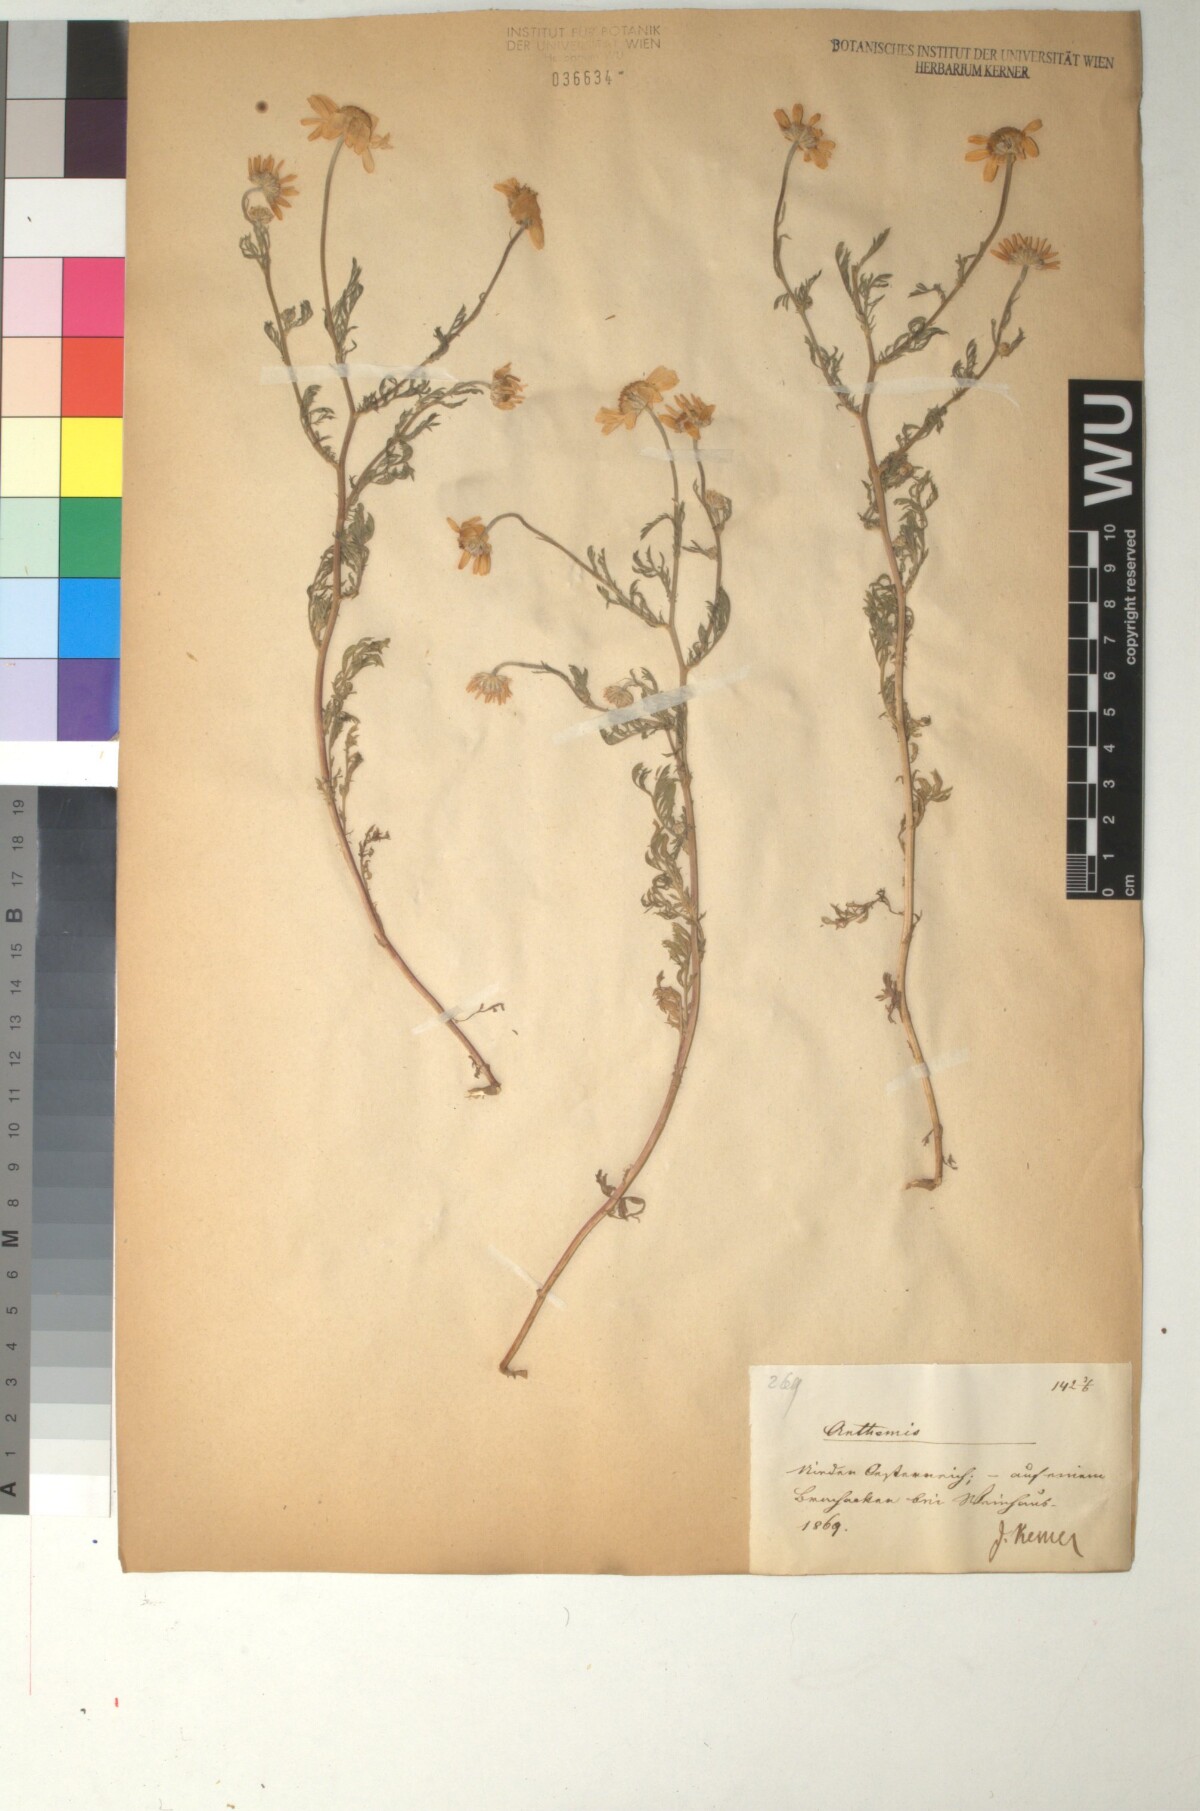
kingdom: Plantae
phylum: Tracheophyta
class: Magnoliopsida
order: Asterales
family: Asteraceae
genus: Anthemis
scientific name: Anthemis ruthenica
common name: Eastern chamomile
